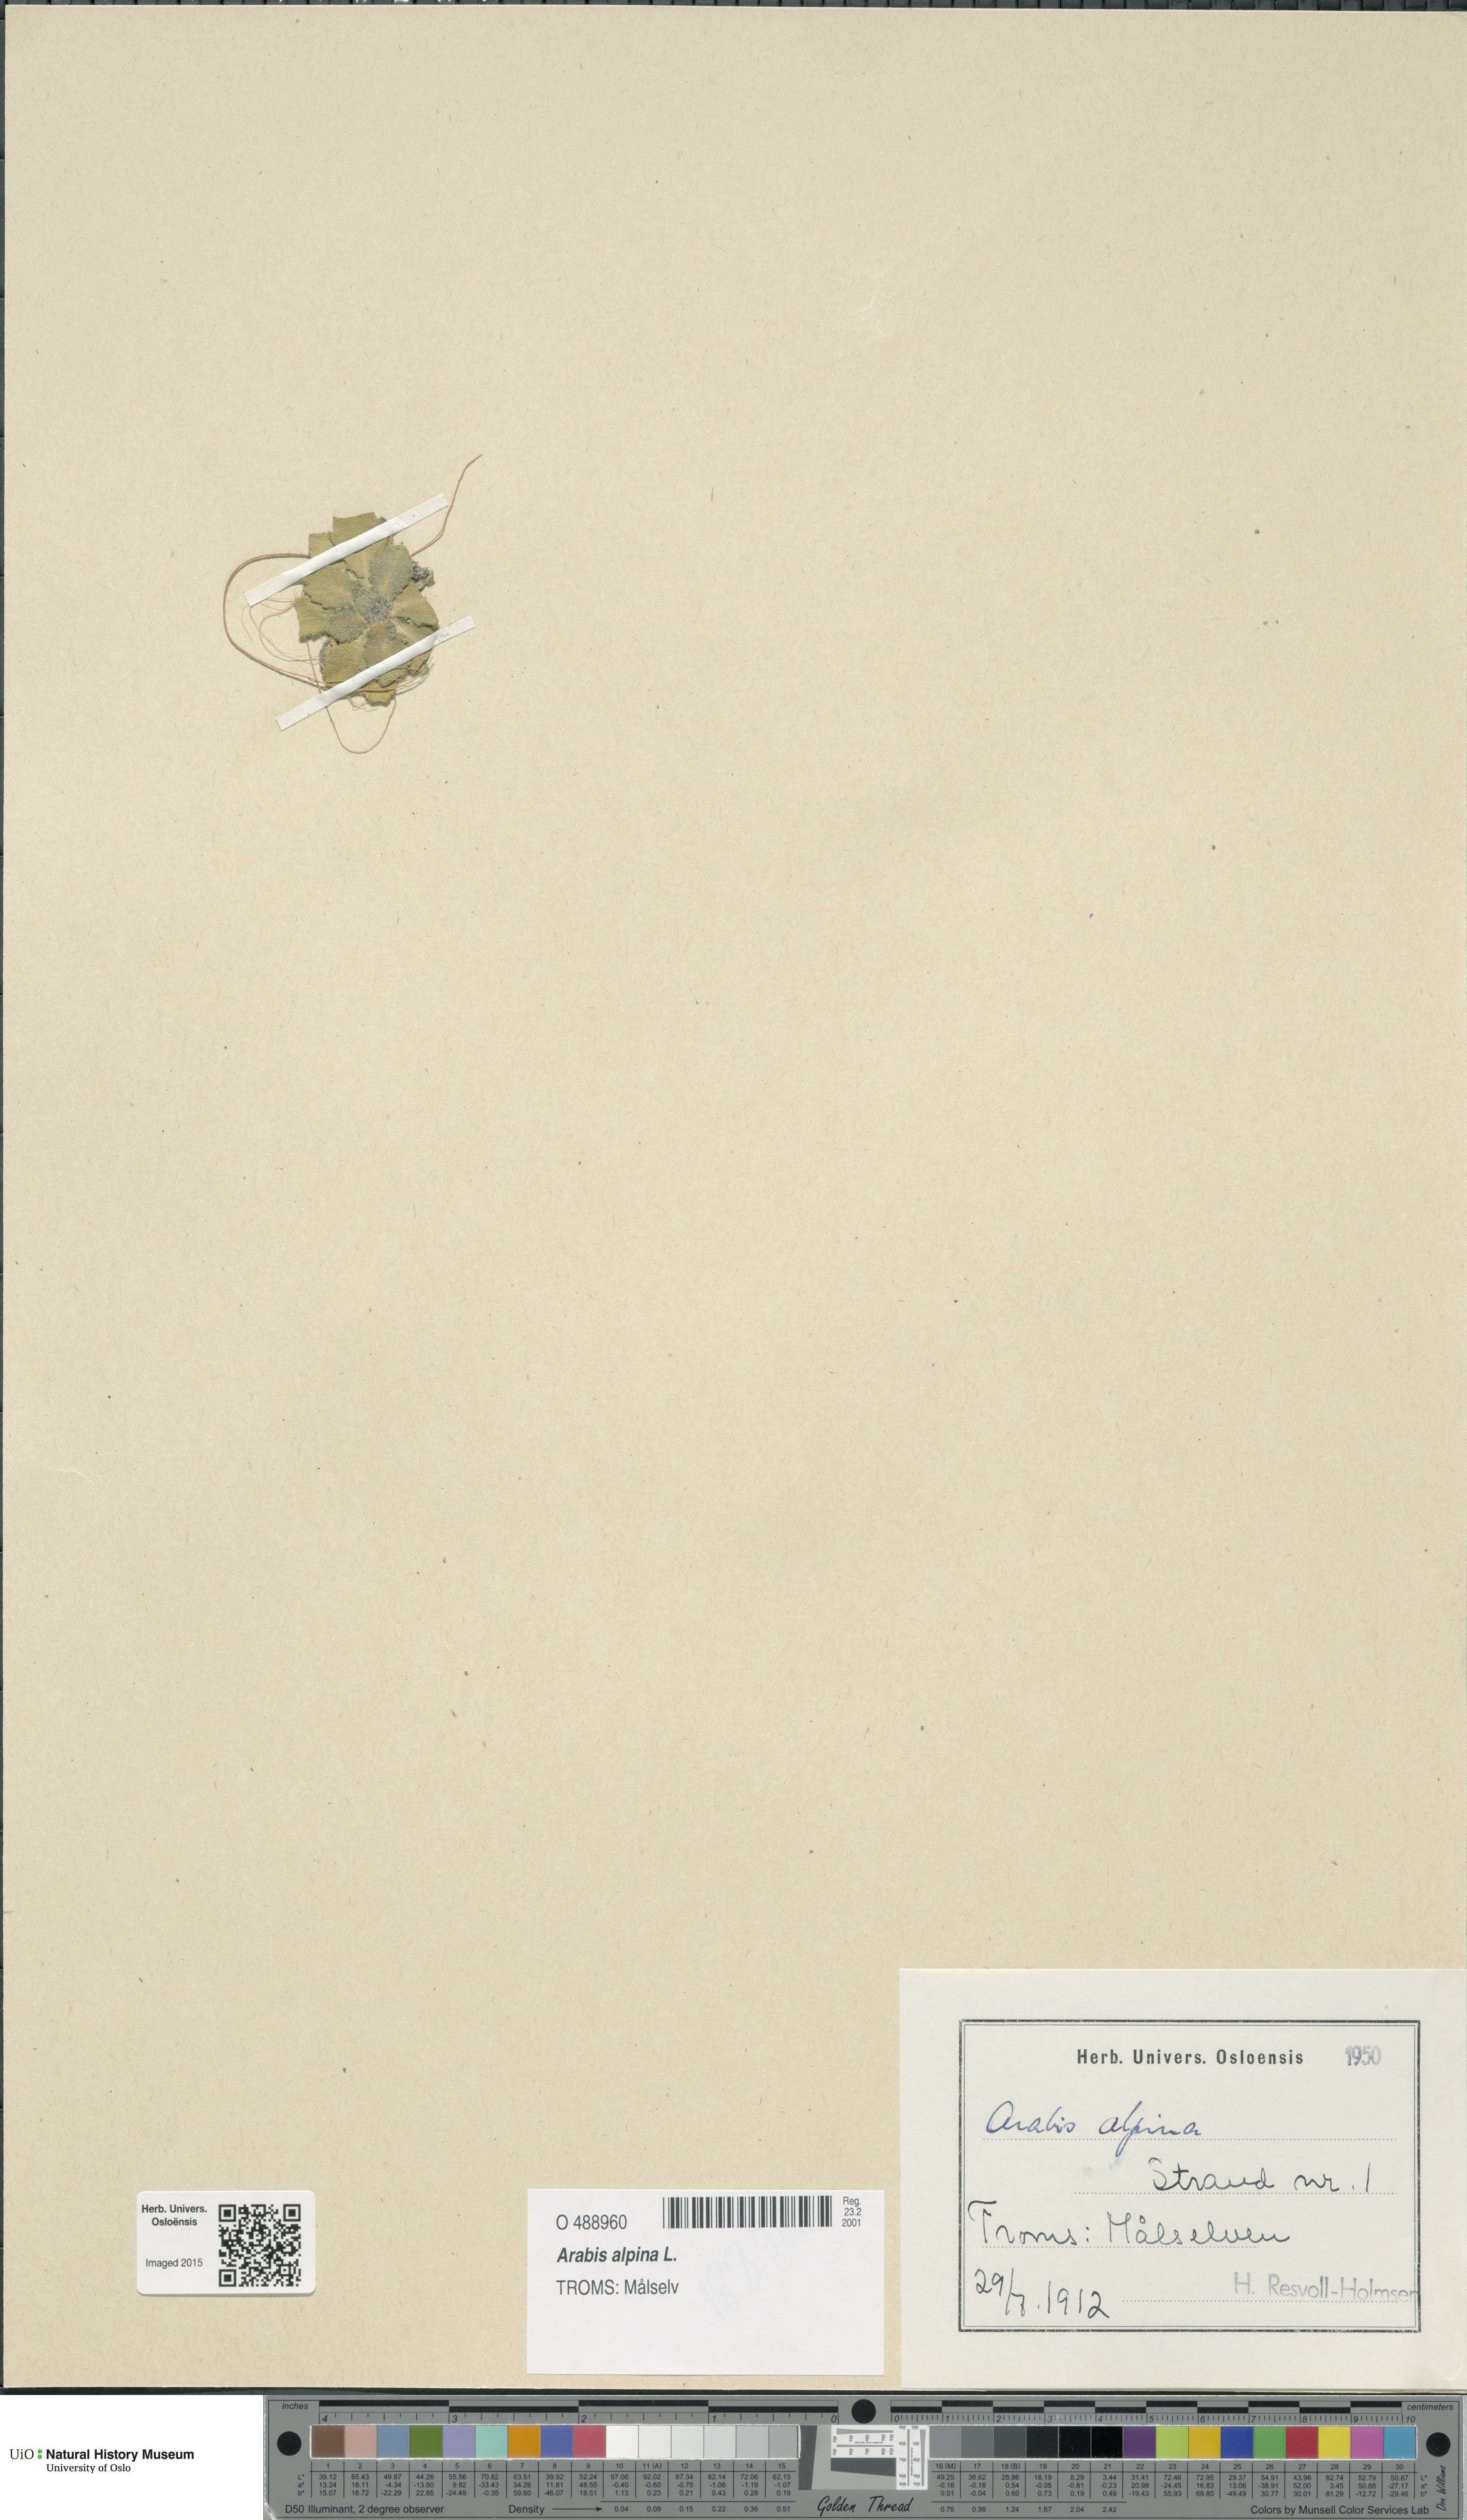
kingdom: Plantae
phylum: Tracheophyta
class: Magnoliopsida
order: Brassicales
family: Brassicaceae
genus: Arabis
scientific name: Arabis alpina
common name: Alpine rock-cress
